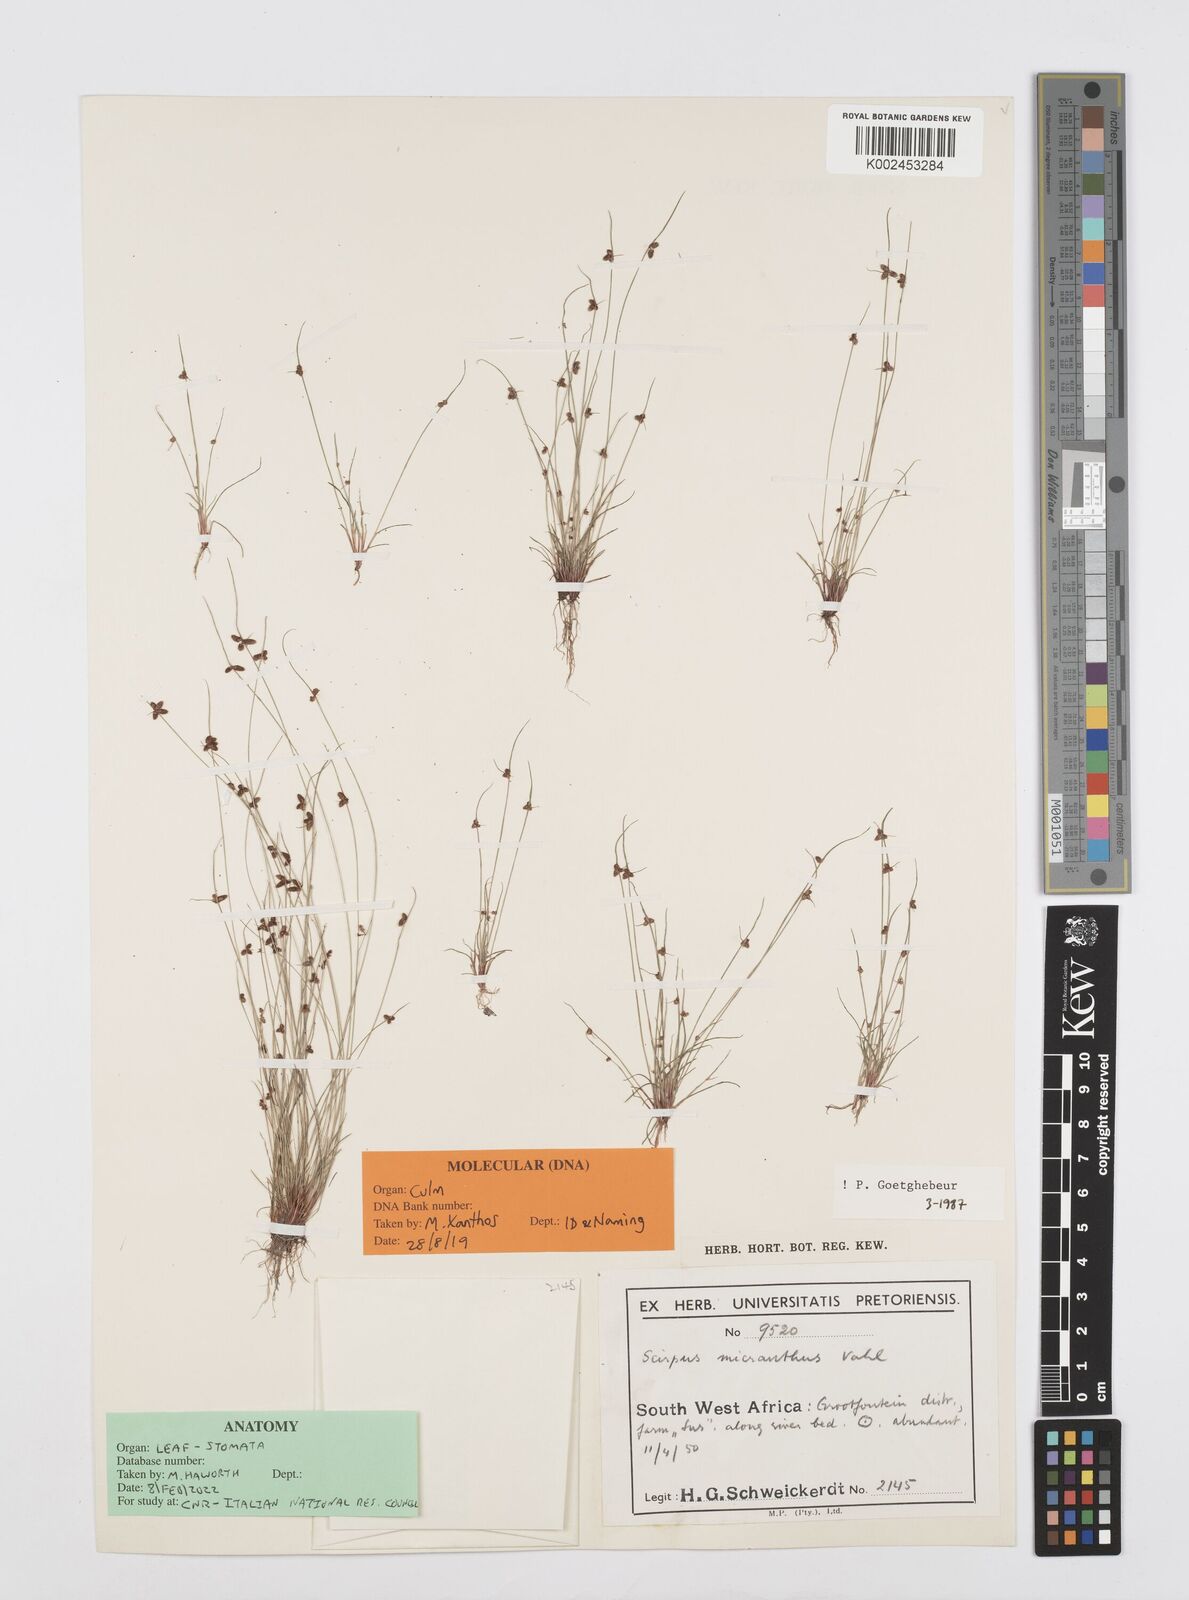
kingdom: Plantae
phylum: Tracheophyta
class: Liliopsida
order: Poales
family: Cyperaceae
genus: Cyperus
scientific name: Cyperus dentatus
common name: Dentate umbrella sedge
